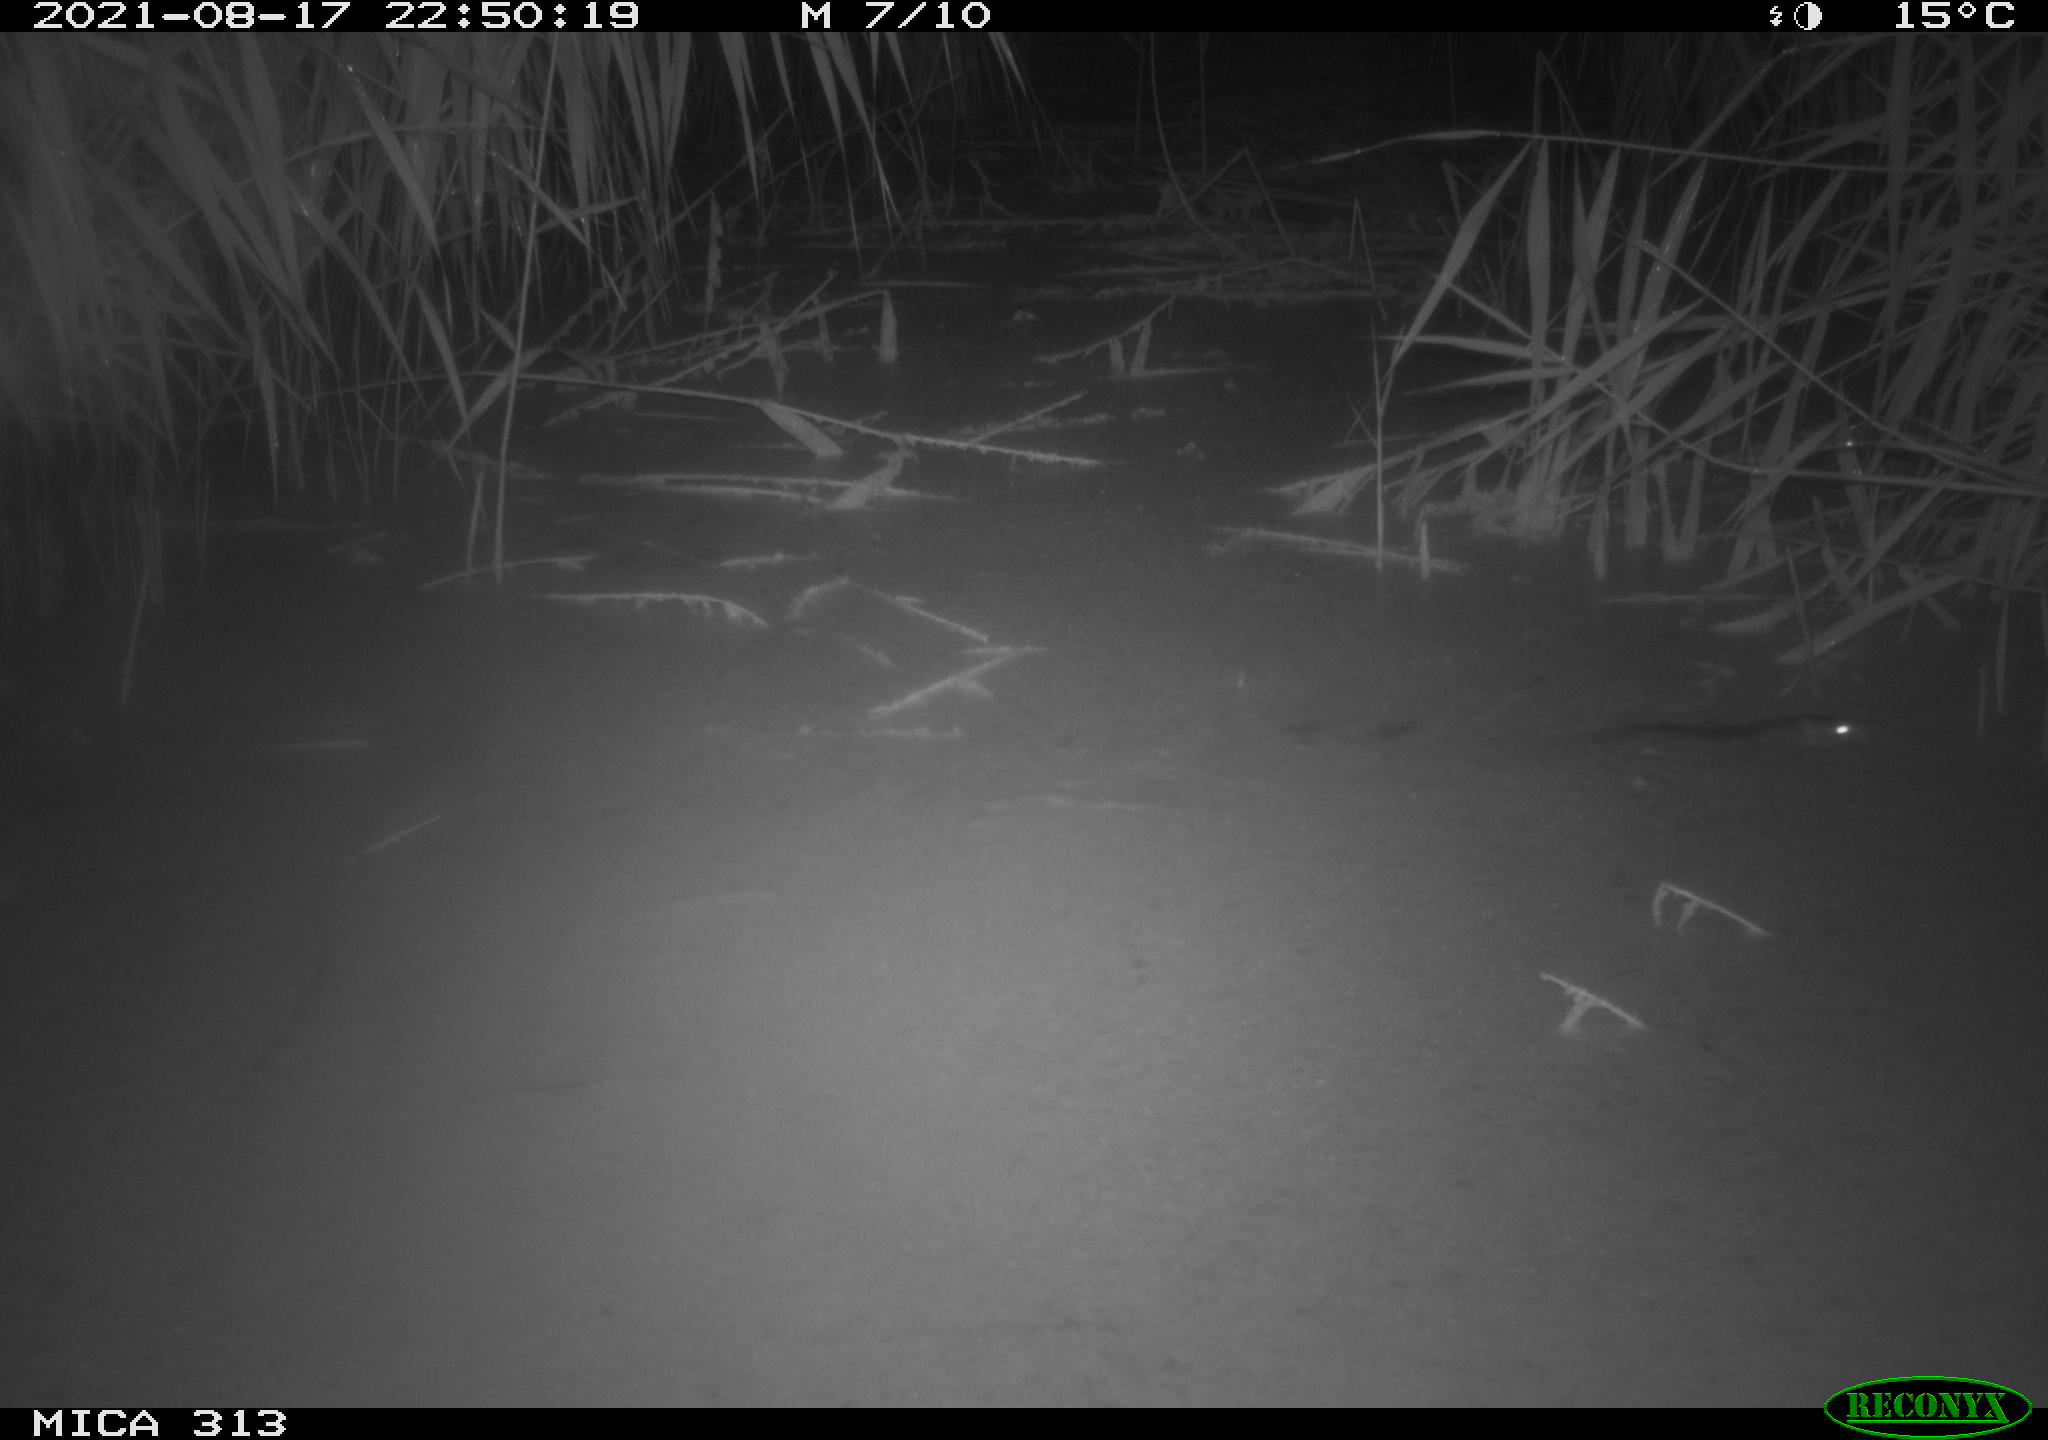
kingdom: Animalia
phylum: Chordata
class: Mammalia
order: Rodentia
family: Muridae
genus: Rattus
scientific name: Rattus norvegicus
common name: Brown rat
